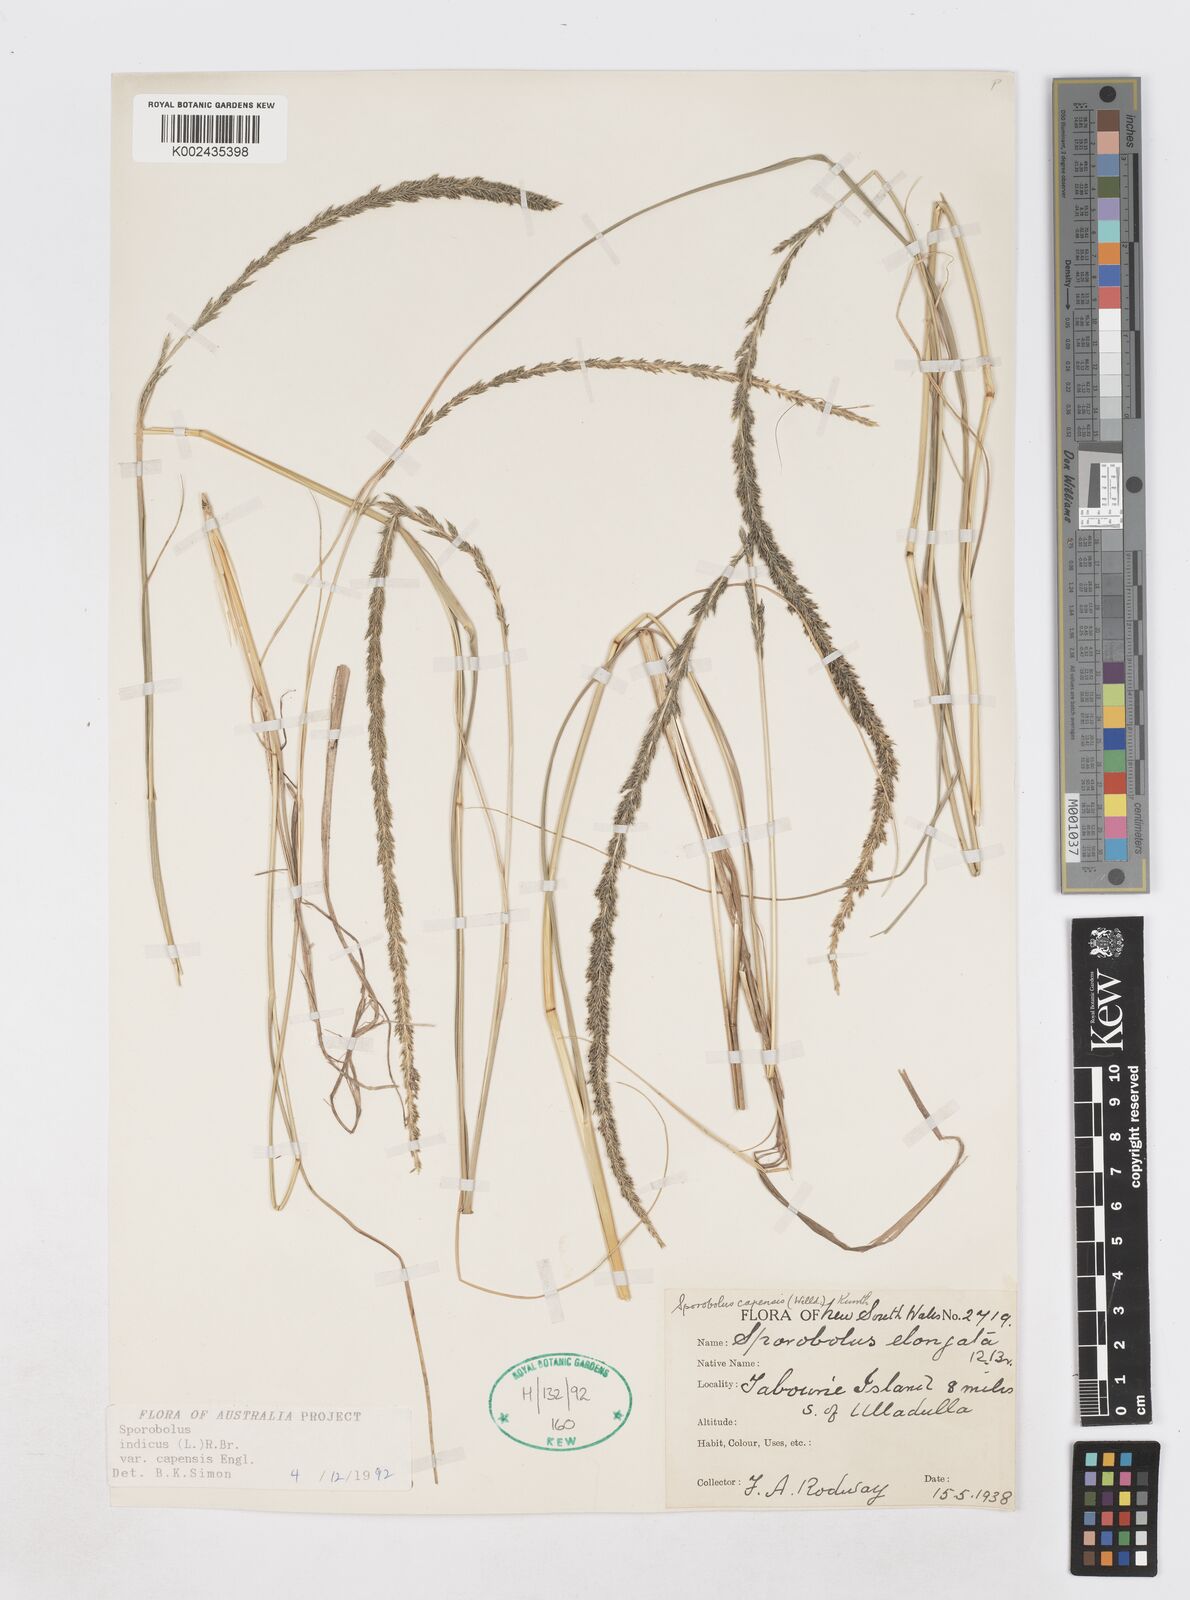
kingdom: Plantae
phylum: Tracheophyta
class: Liliopsida
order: Poales
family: Poaceae
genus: Sporobolus
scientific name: Sporobolus africanus
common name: African dropseed
